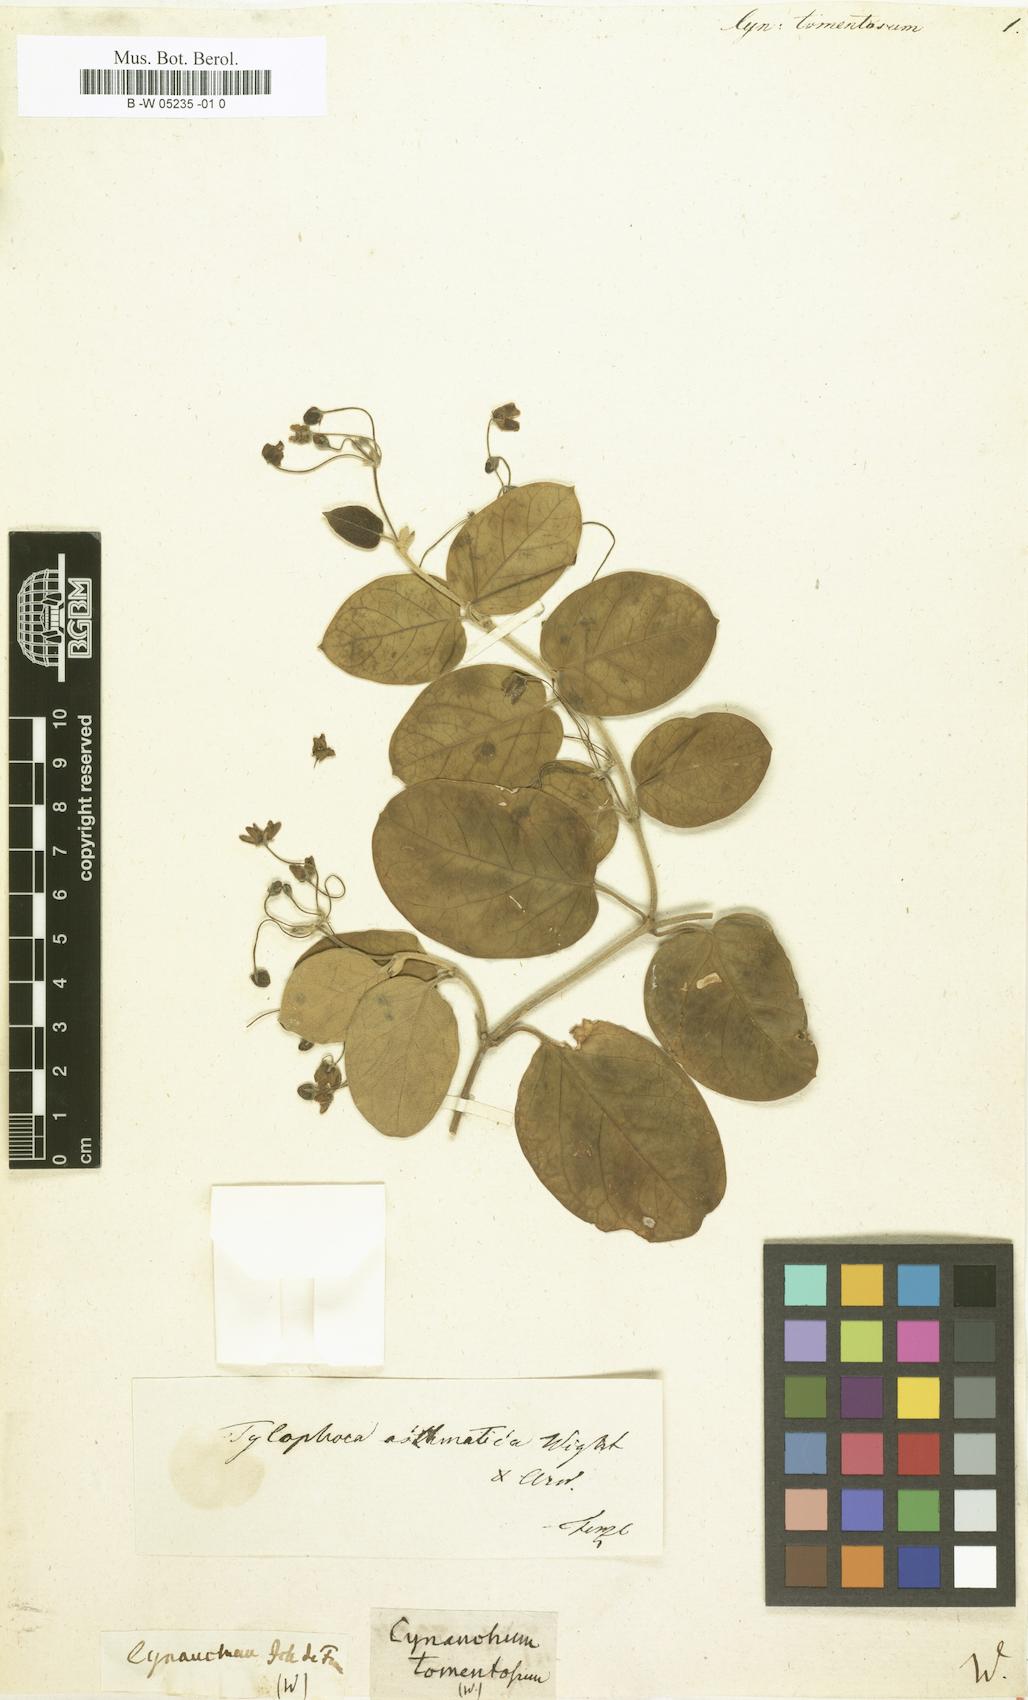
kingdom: Plantae
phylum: Tracheophyta
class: Magnoliopsida
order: Gentianales
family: Apocynaceae
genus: Vincetoxicum
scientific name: Vincetoxicum indicum
